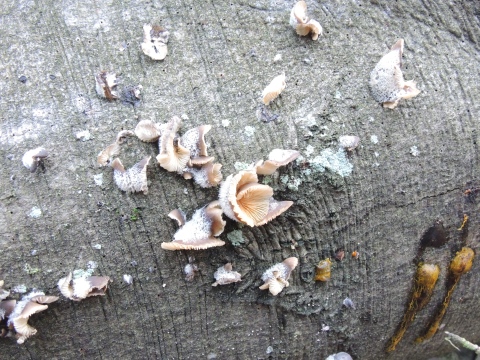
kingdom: Fungi
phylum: Basidiomycota
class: Agaricomycetes
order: Agaricales
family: Pleurotaceae
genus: Hohenbuehelia
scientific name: Hohenbuehelia mastrucata
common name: skællet filthat
